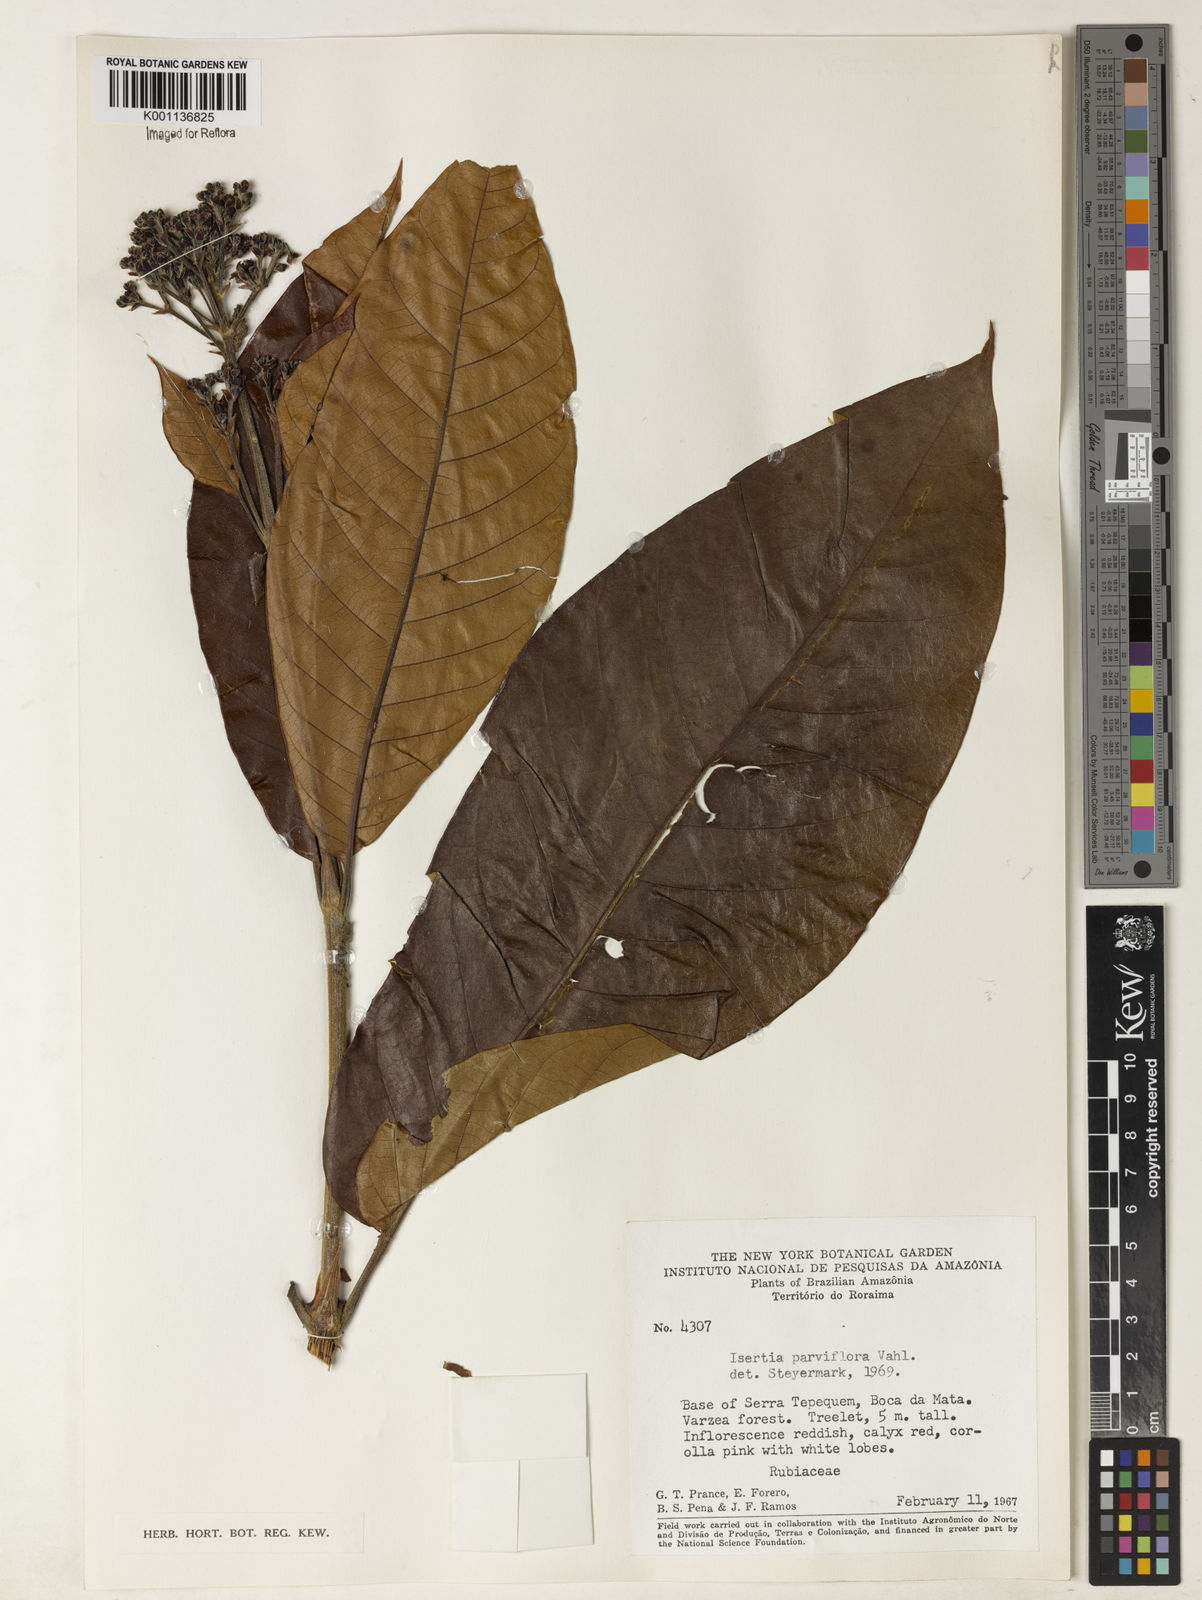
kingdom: Plantae
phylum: Tracheophyta
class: Magnoliopsida
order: Gentianales
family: Rubiaceae
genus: Isertia
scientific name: Isertia parviflora
